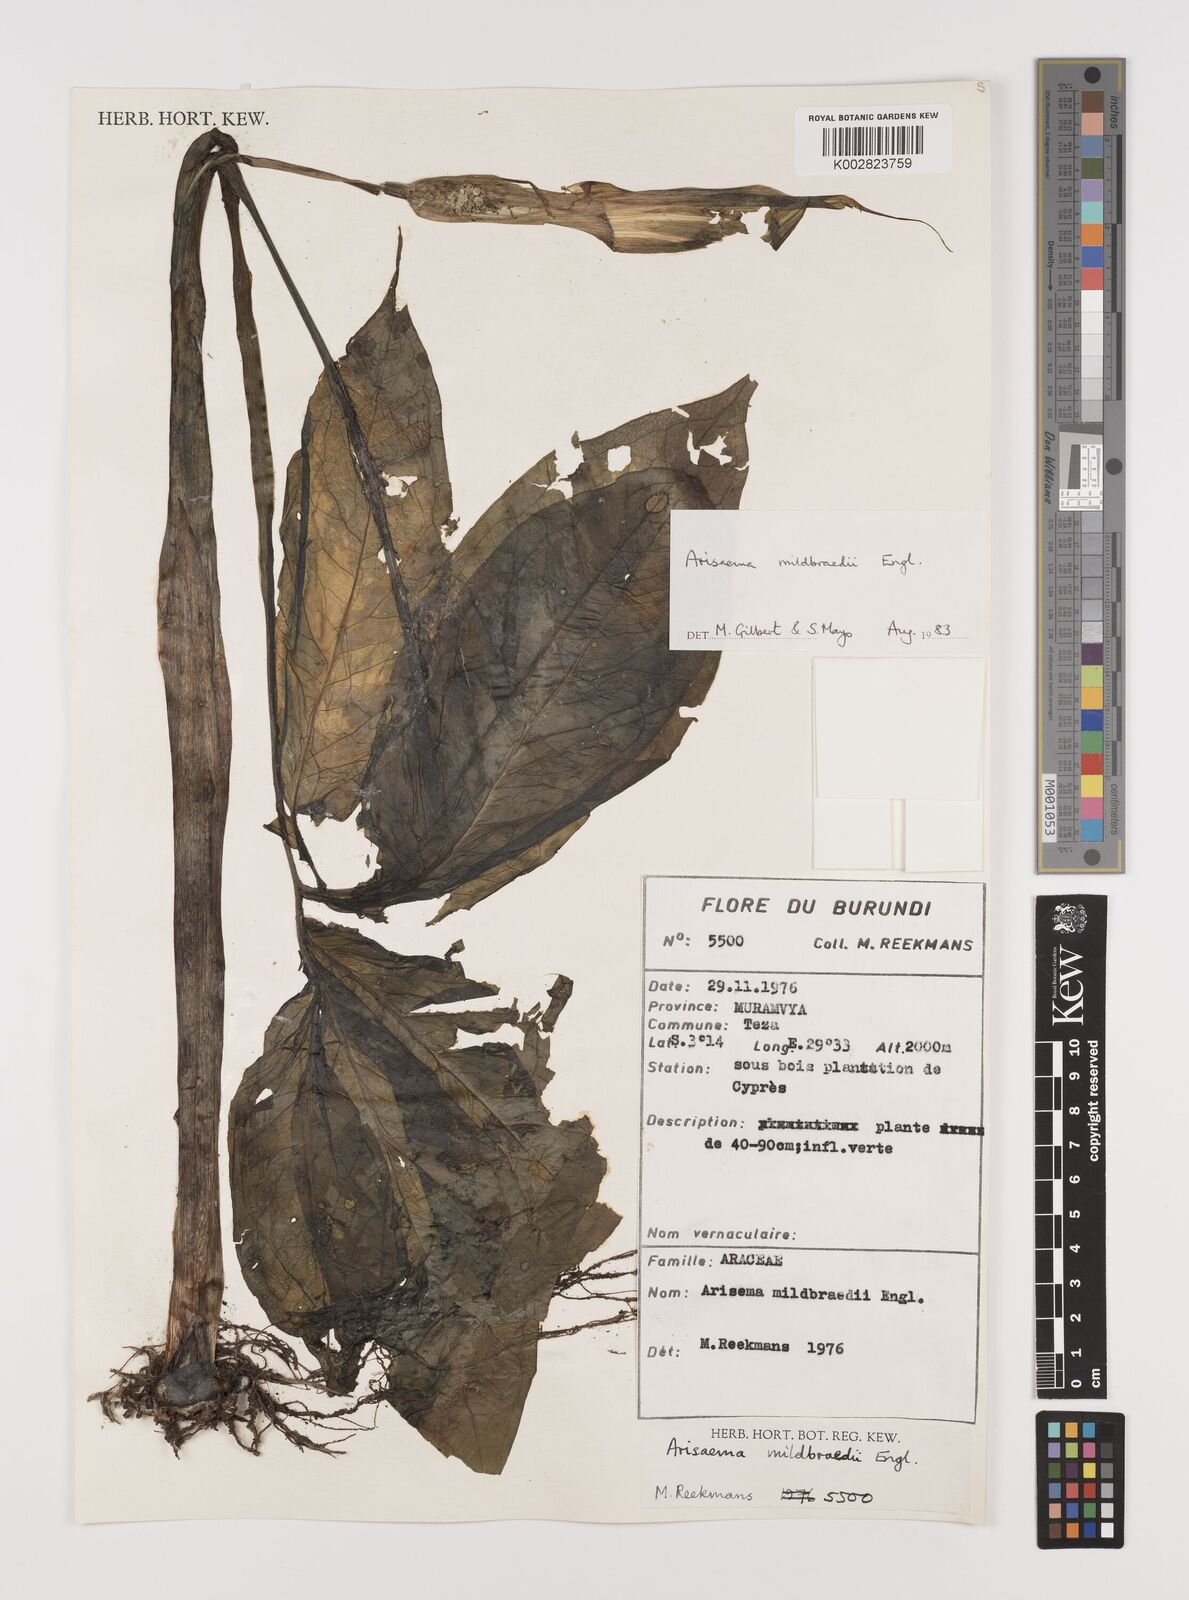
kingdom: Plantae
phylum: Tracheophyta
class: Liliopsida
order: Alismatales
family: Araceae
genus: Arisaema
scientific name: Arisaema mildbraedii
